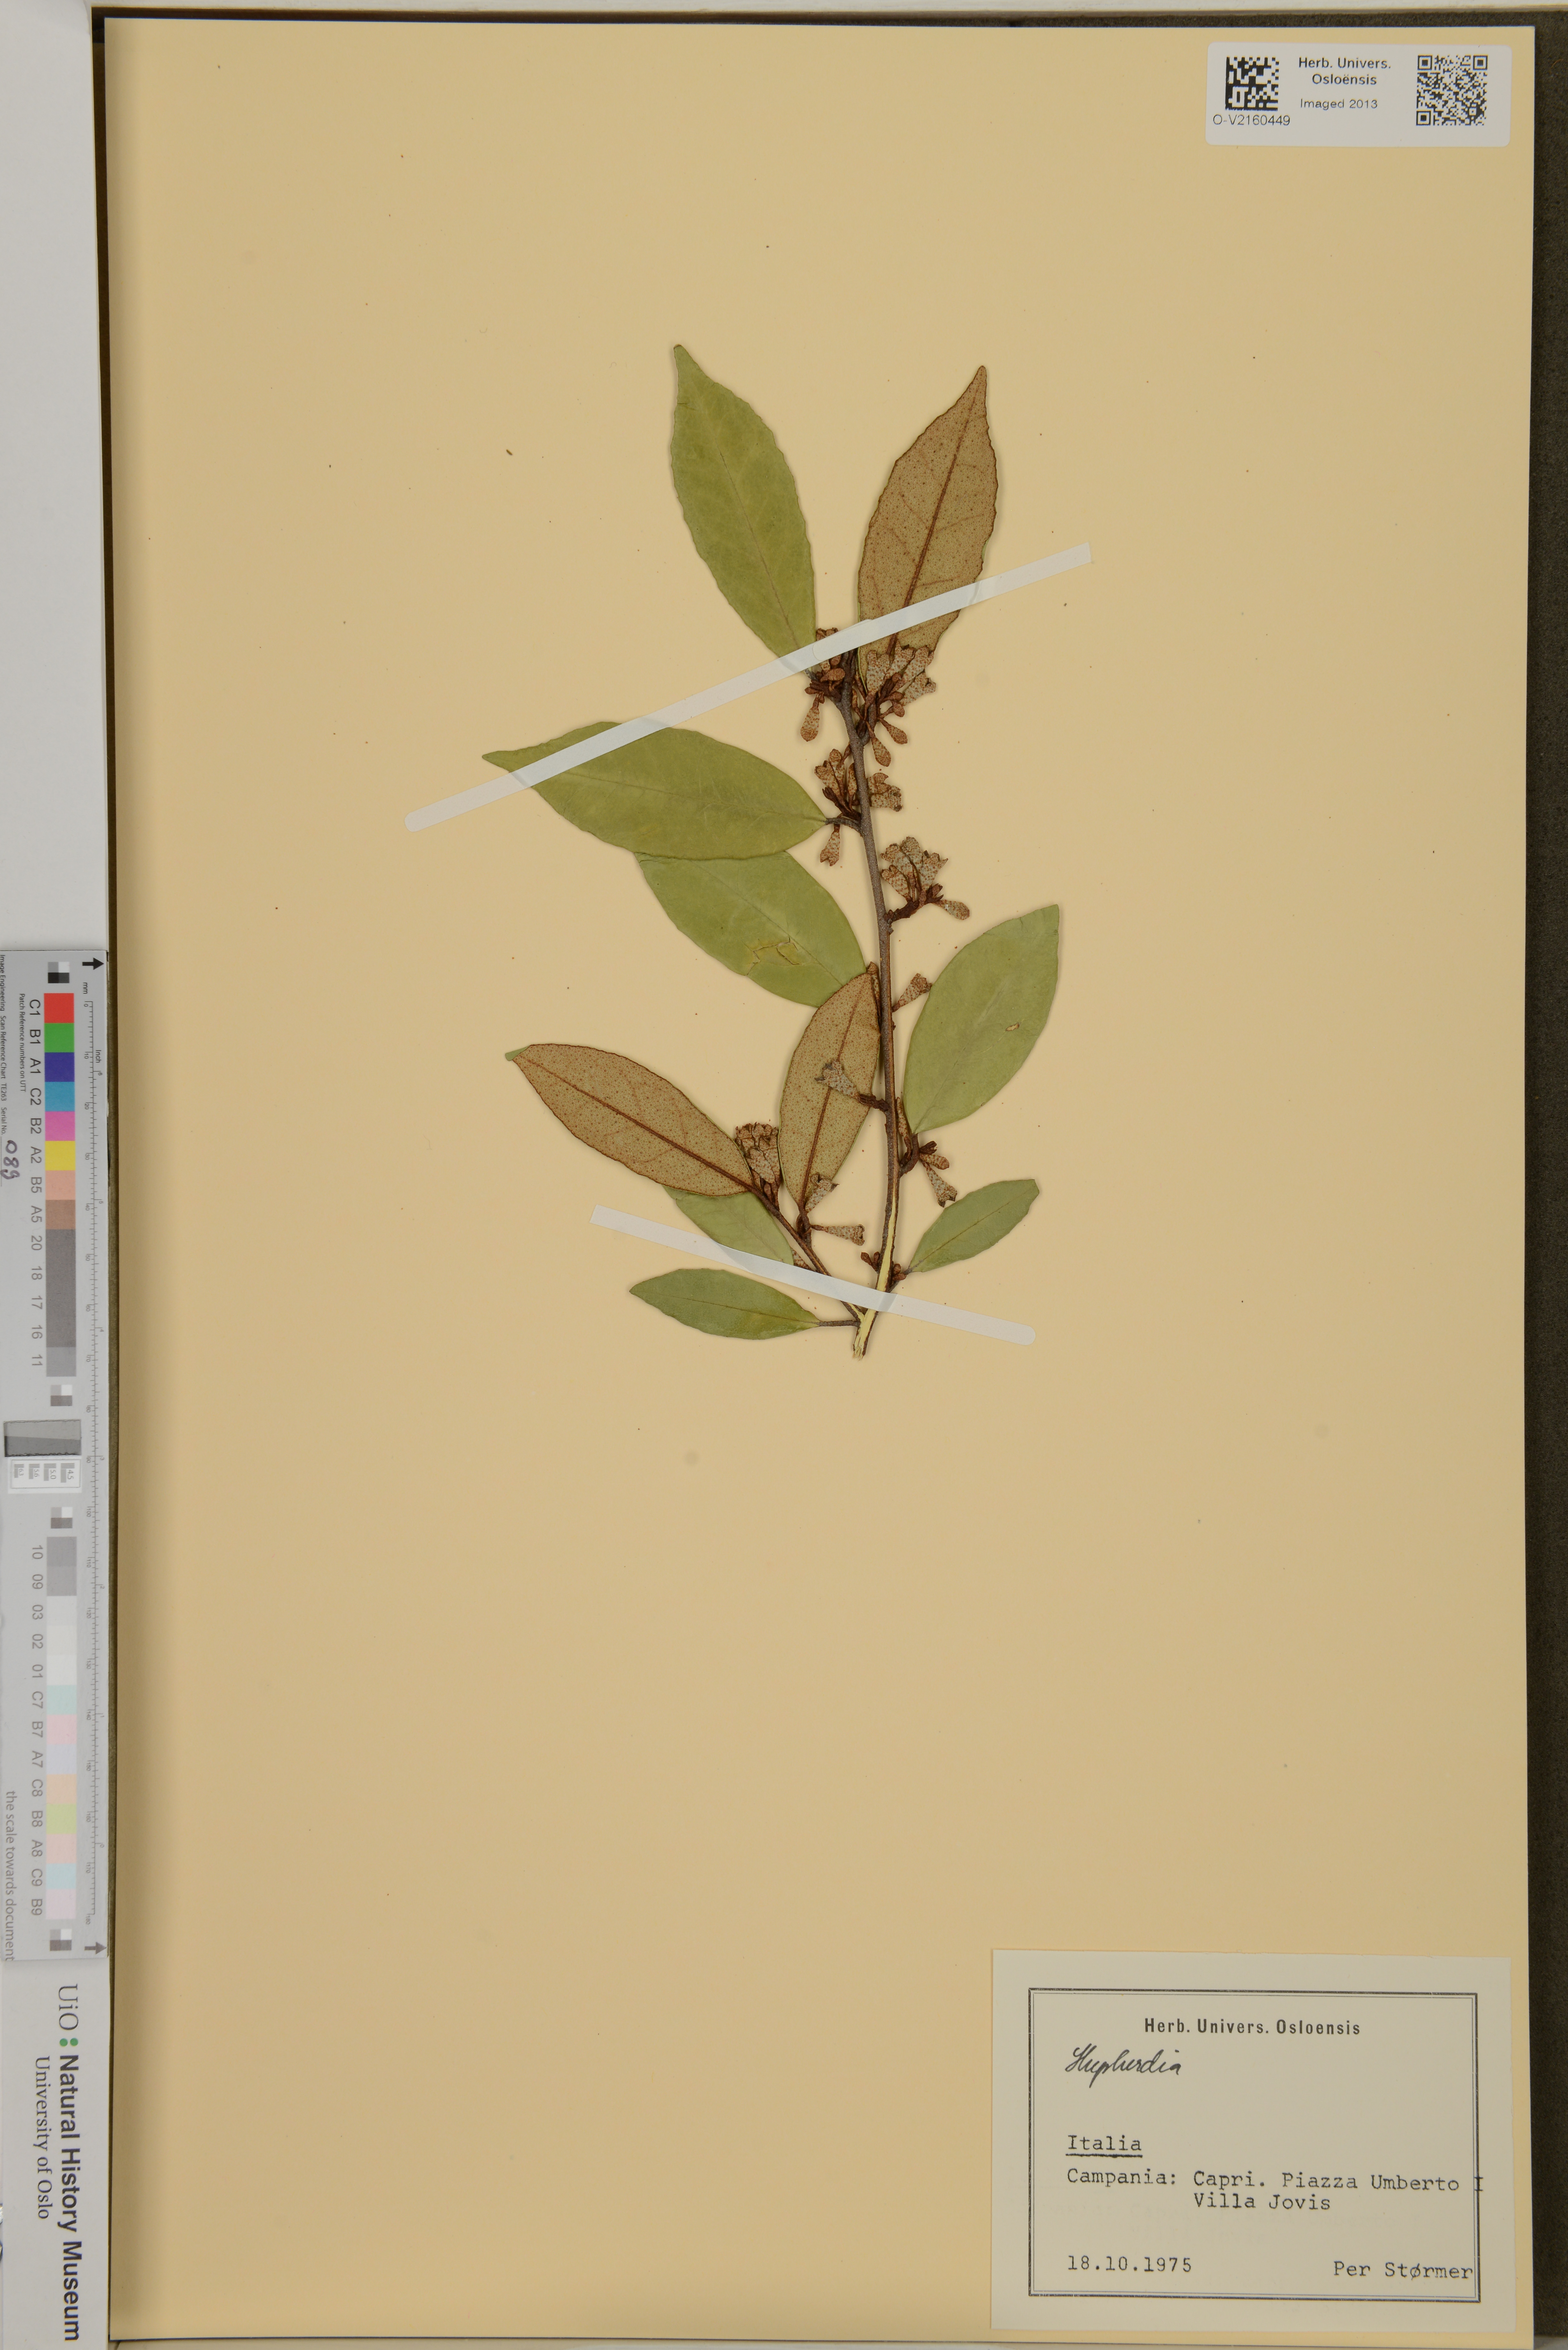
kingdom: Plantae
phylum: Tracheophyta
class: Magnoliopsida
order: Rosales
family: Elaeagnaceae
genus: Shepherdia
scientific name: Shepherdia
